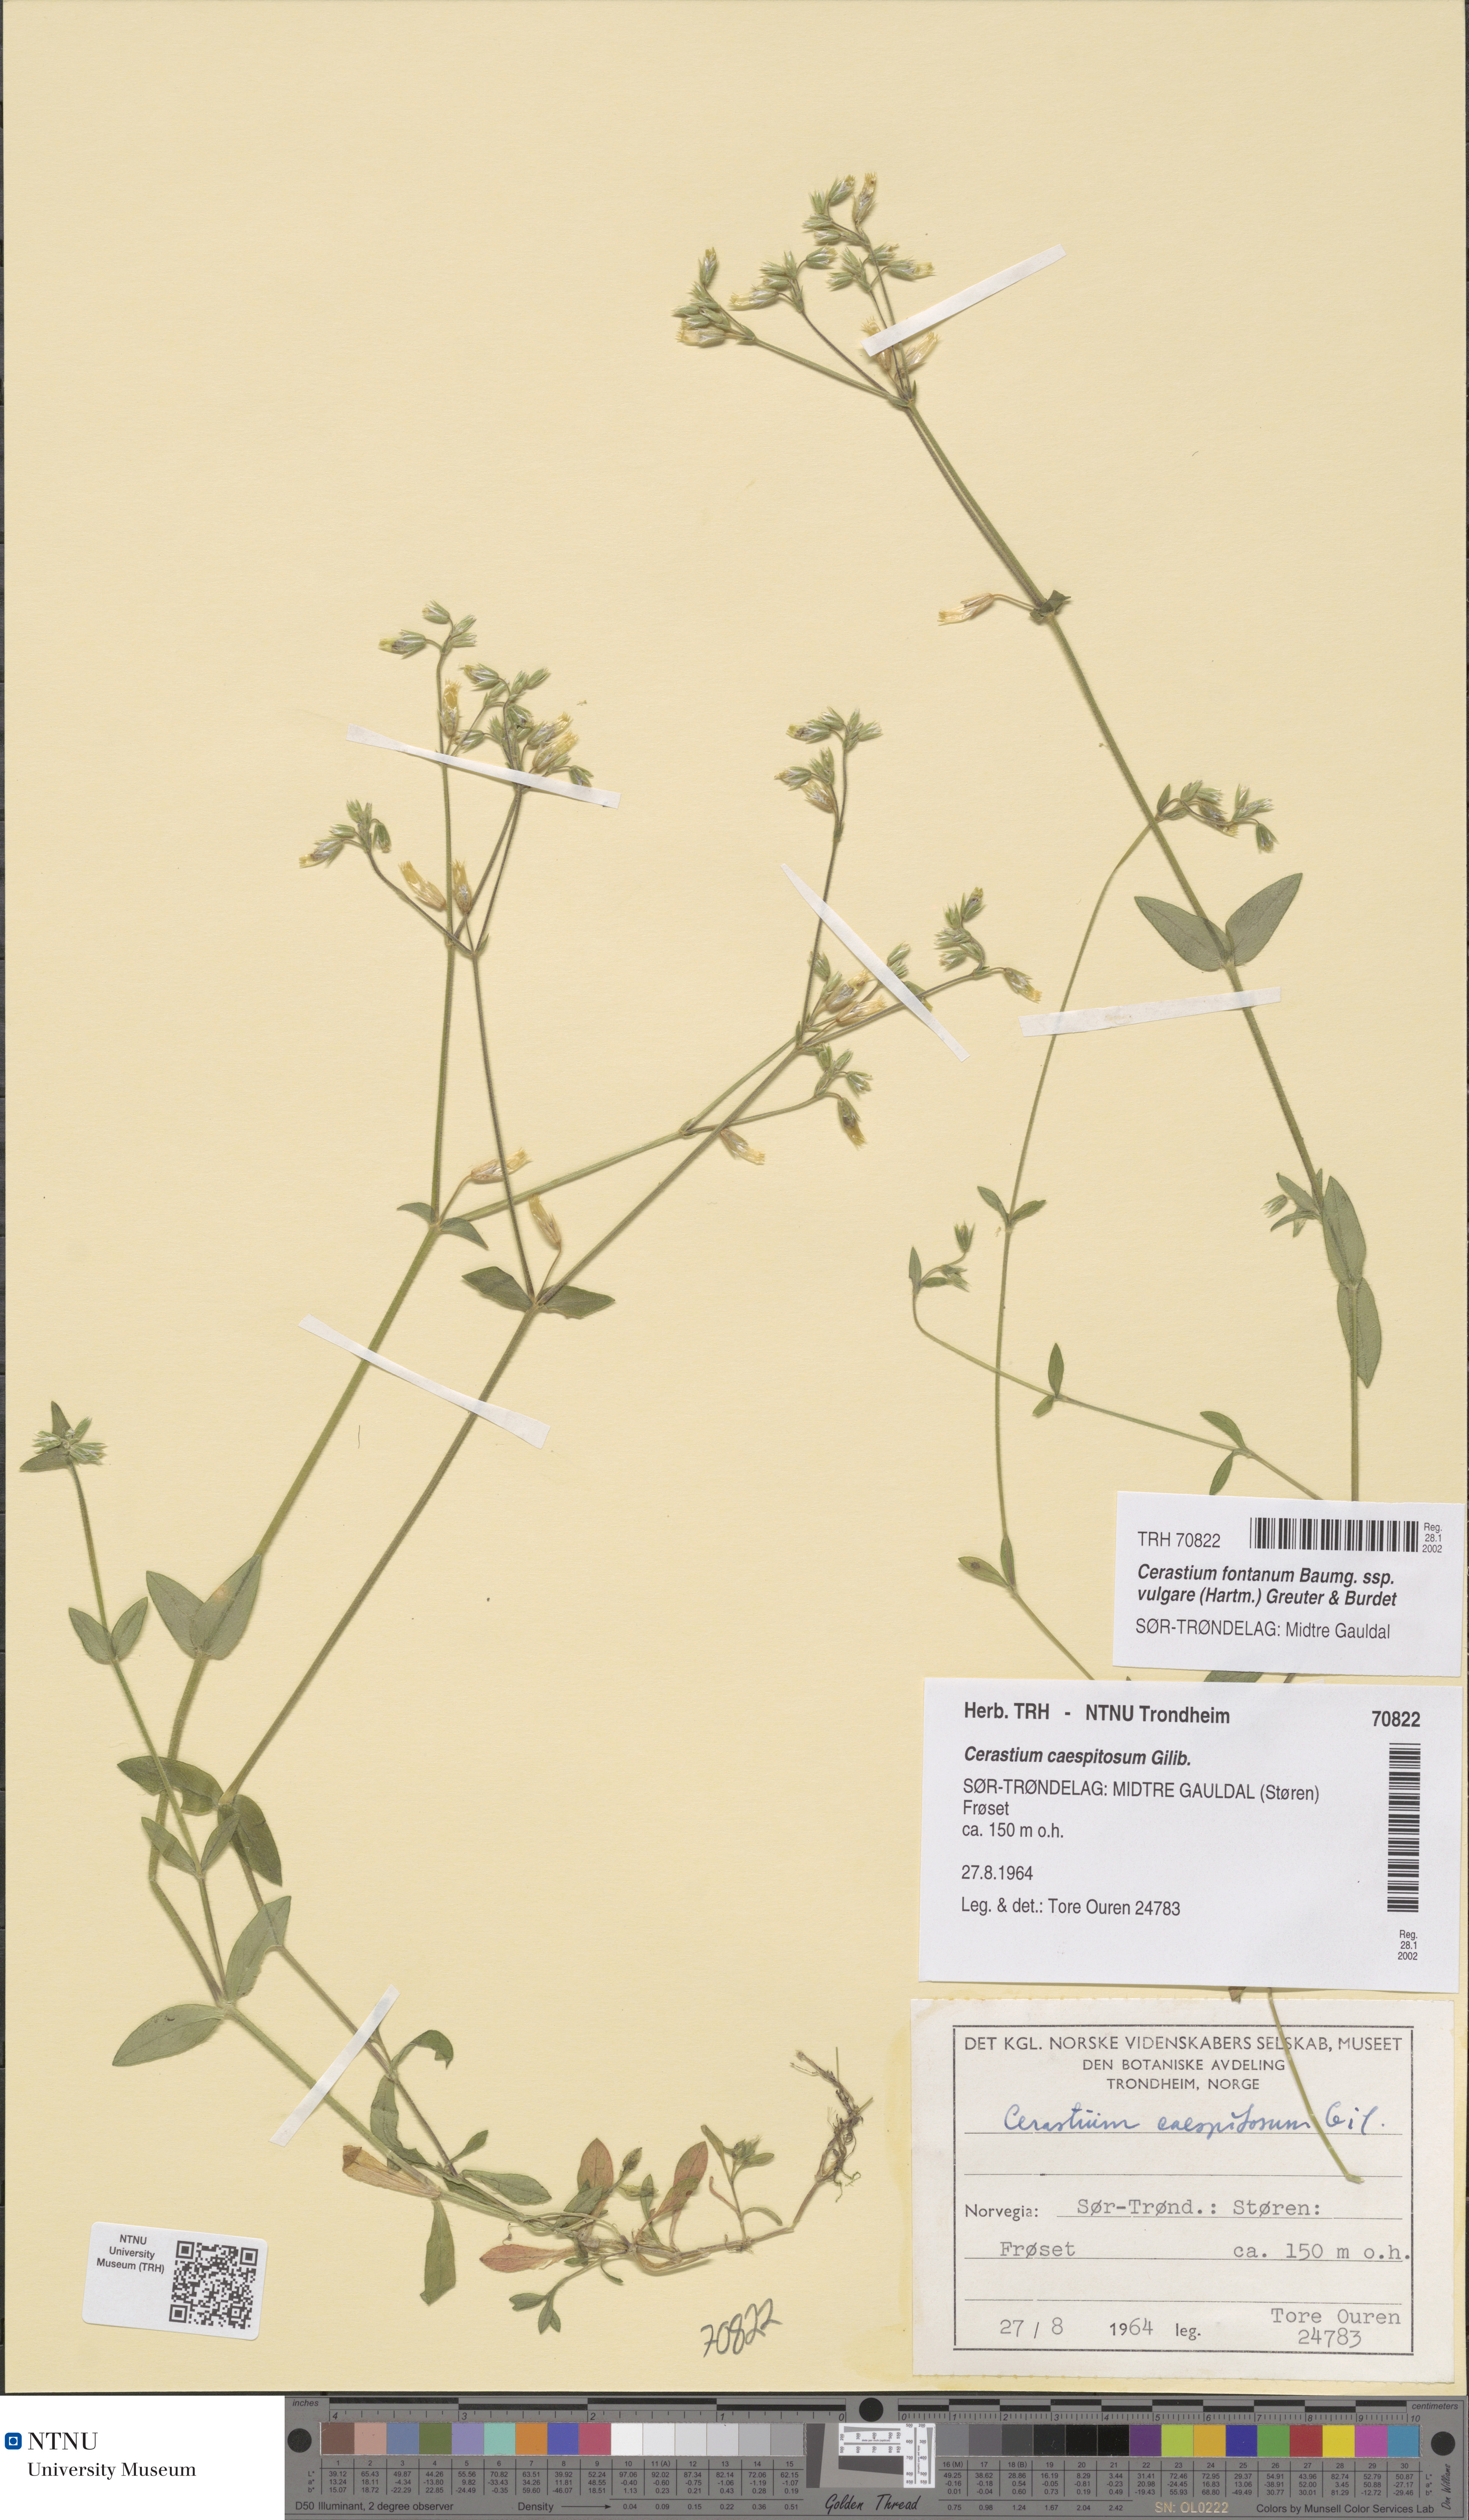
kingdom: Plantae
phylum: Tracheophyta
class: Magnoliopsida
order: Caryophyllales
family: Caryophyllaceae
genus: Cerastium
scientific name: Cerastium holosteoides
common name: Big chickweed
